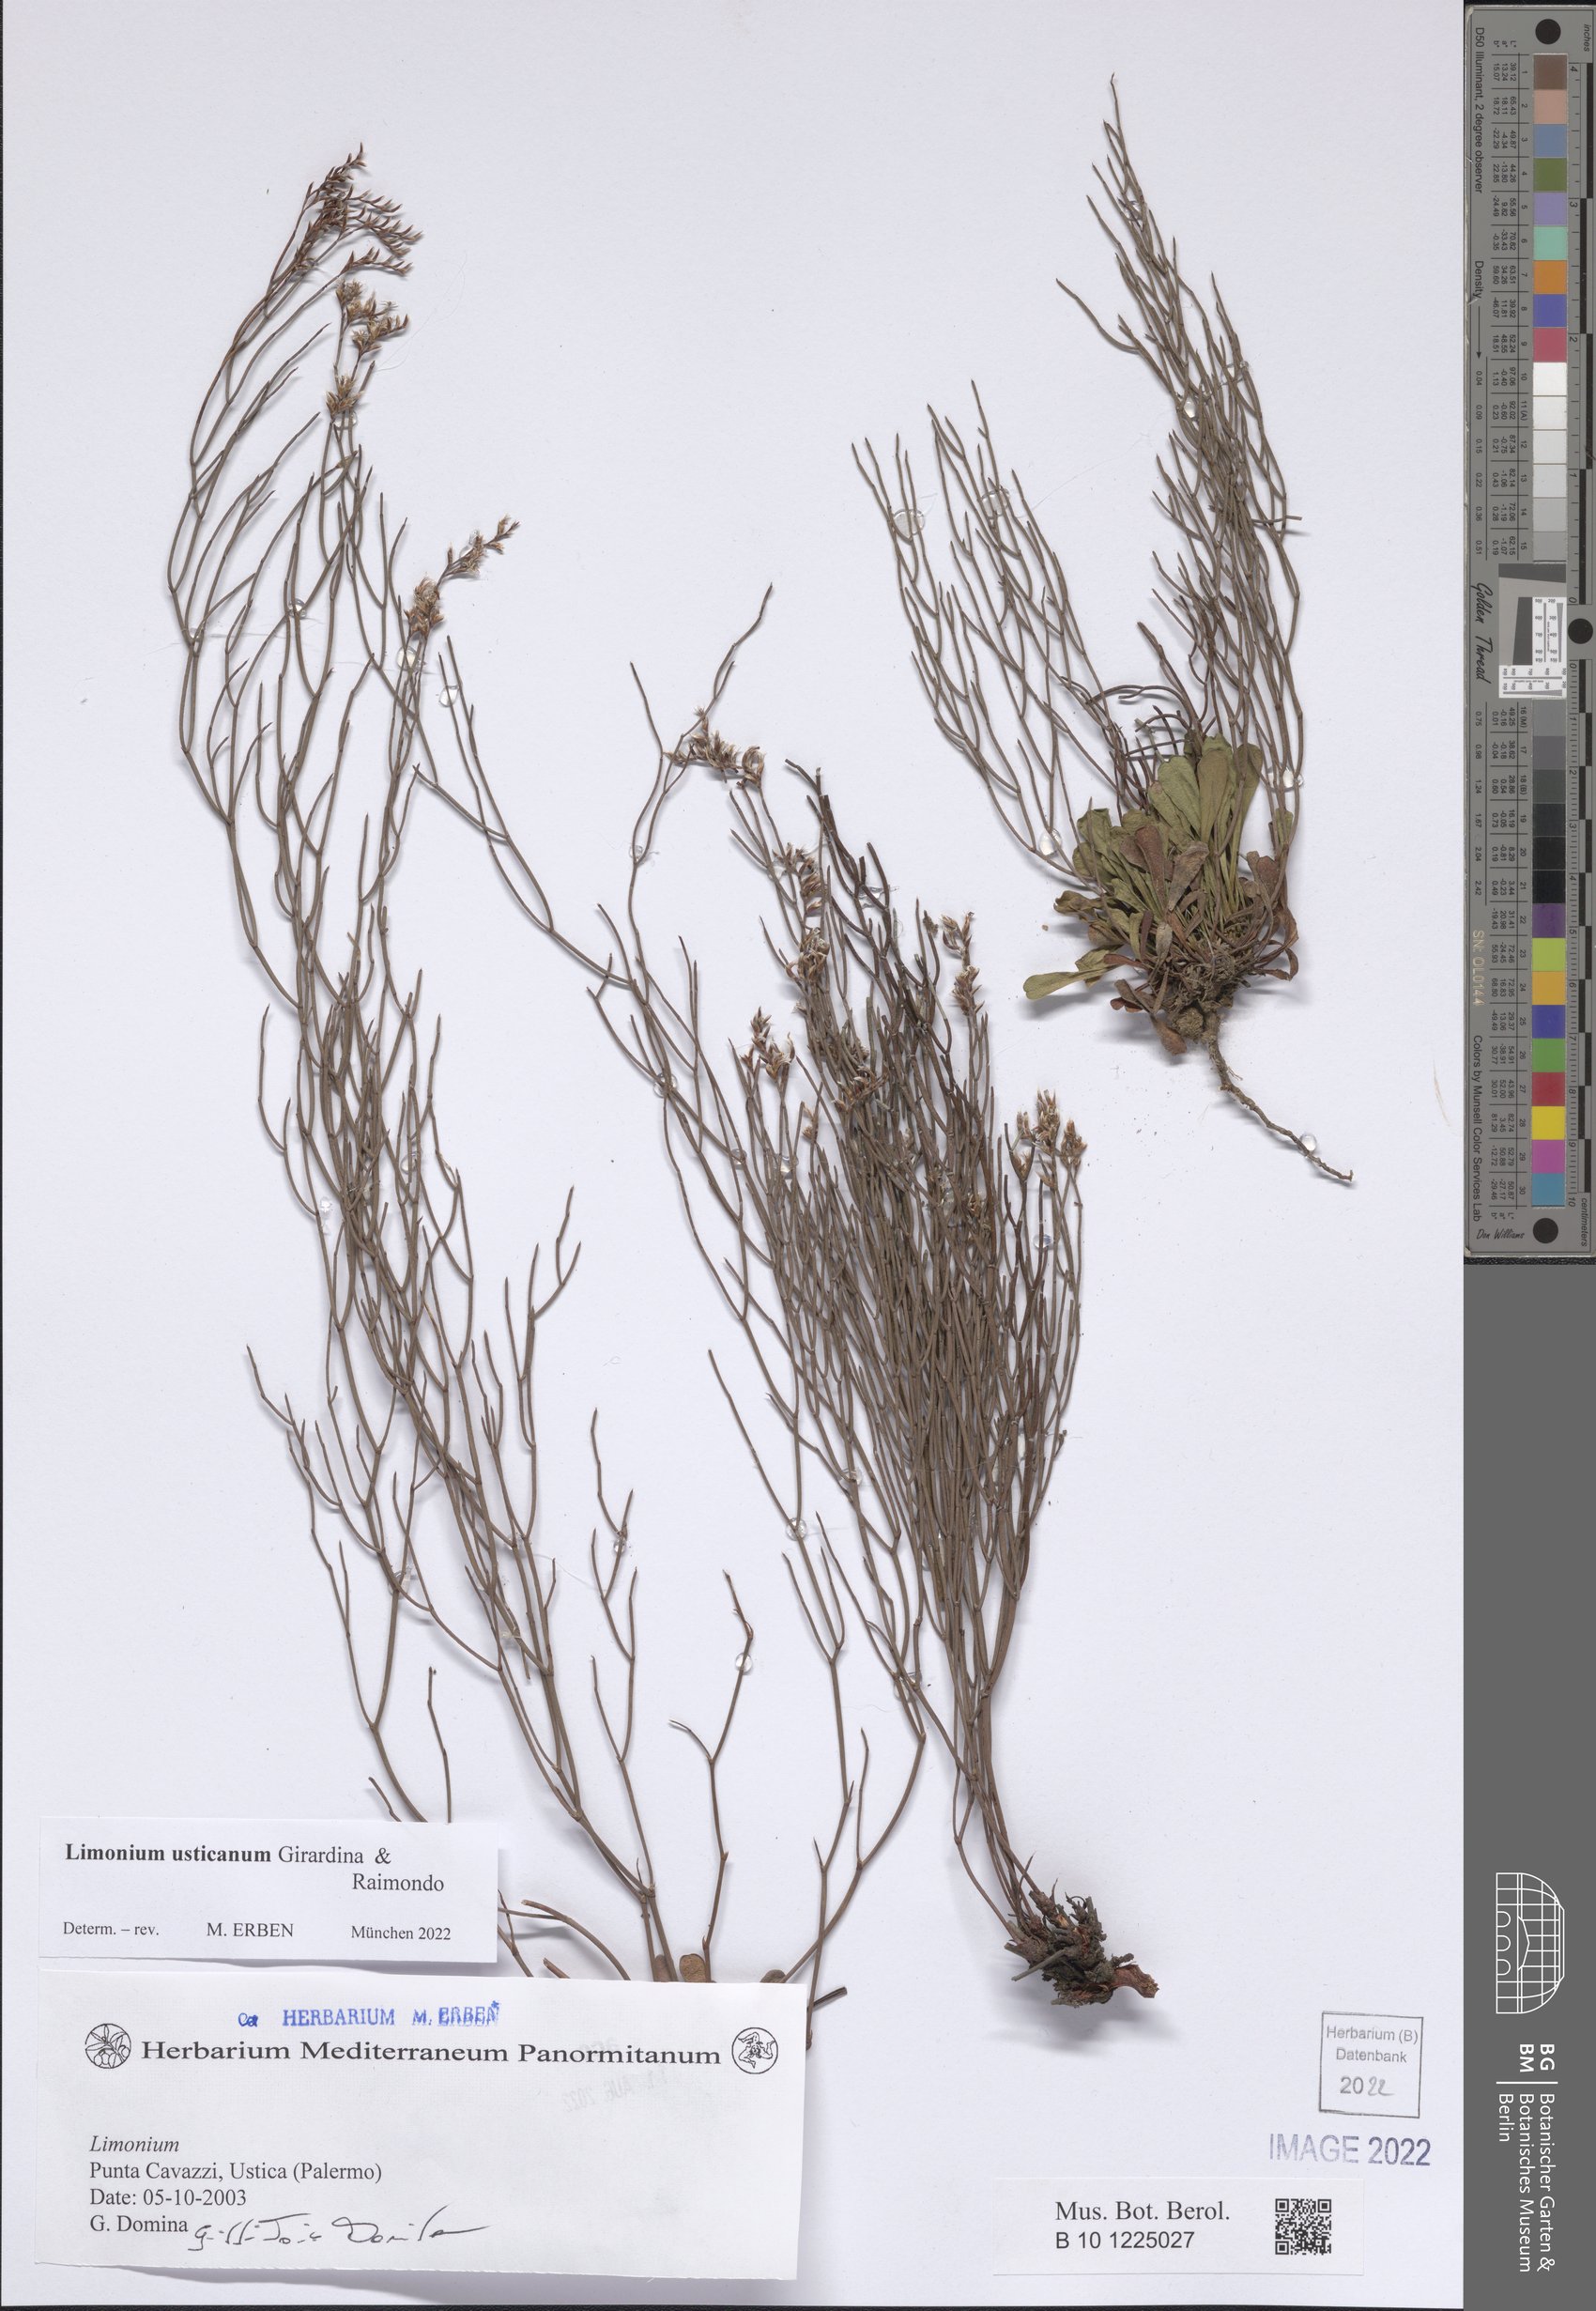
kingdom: Plantae
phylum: Tracheophyta
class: Magnoliopsida
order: Caryophyllales
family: Plumbaginaceae
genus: Limonium
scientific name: Limonium usticanum
